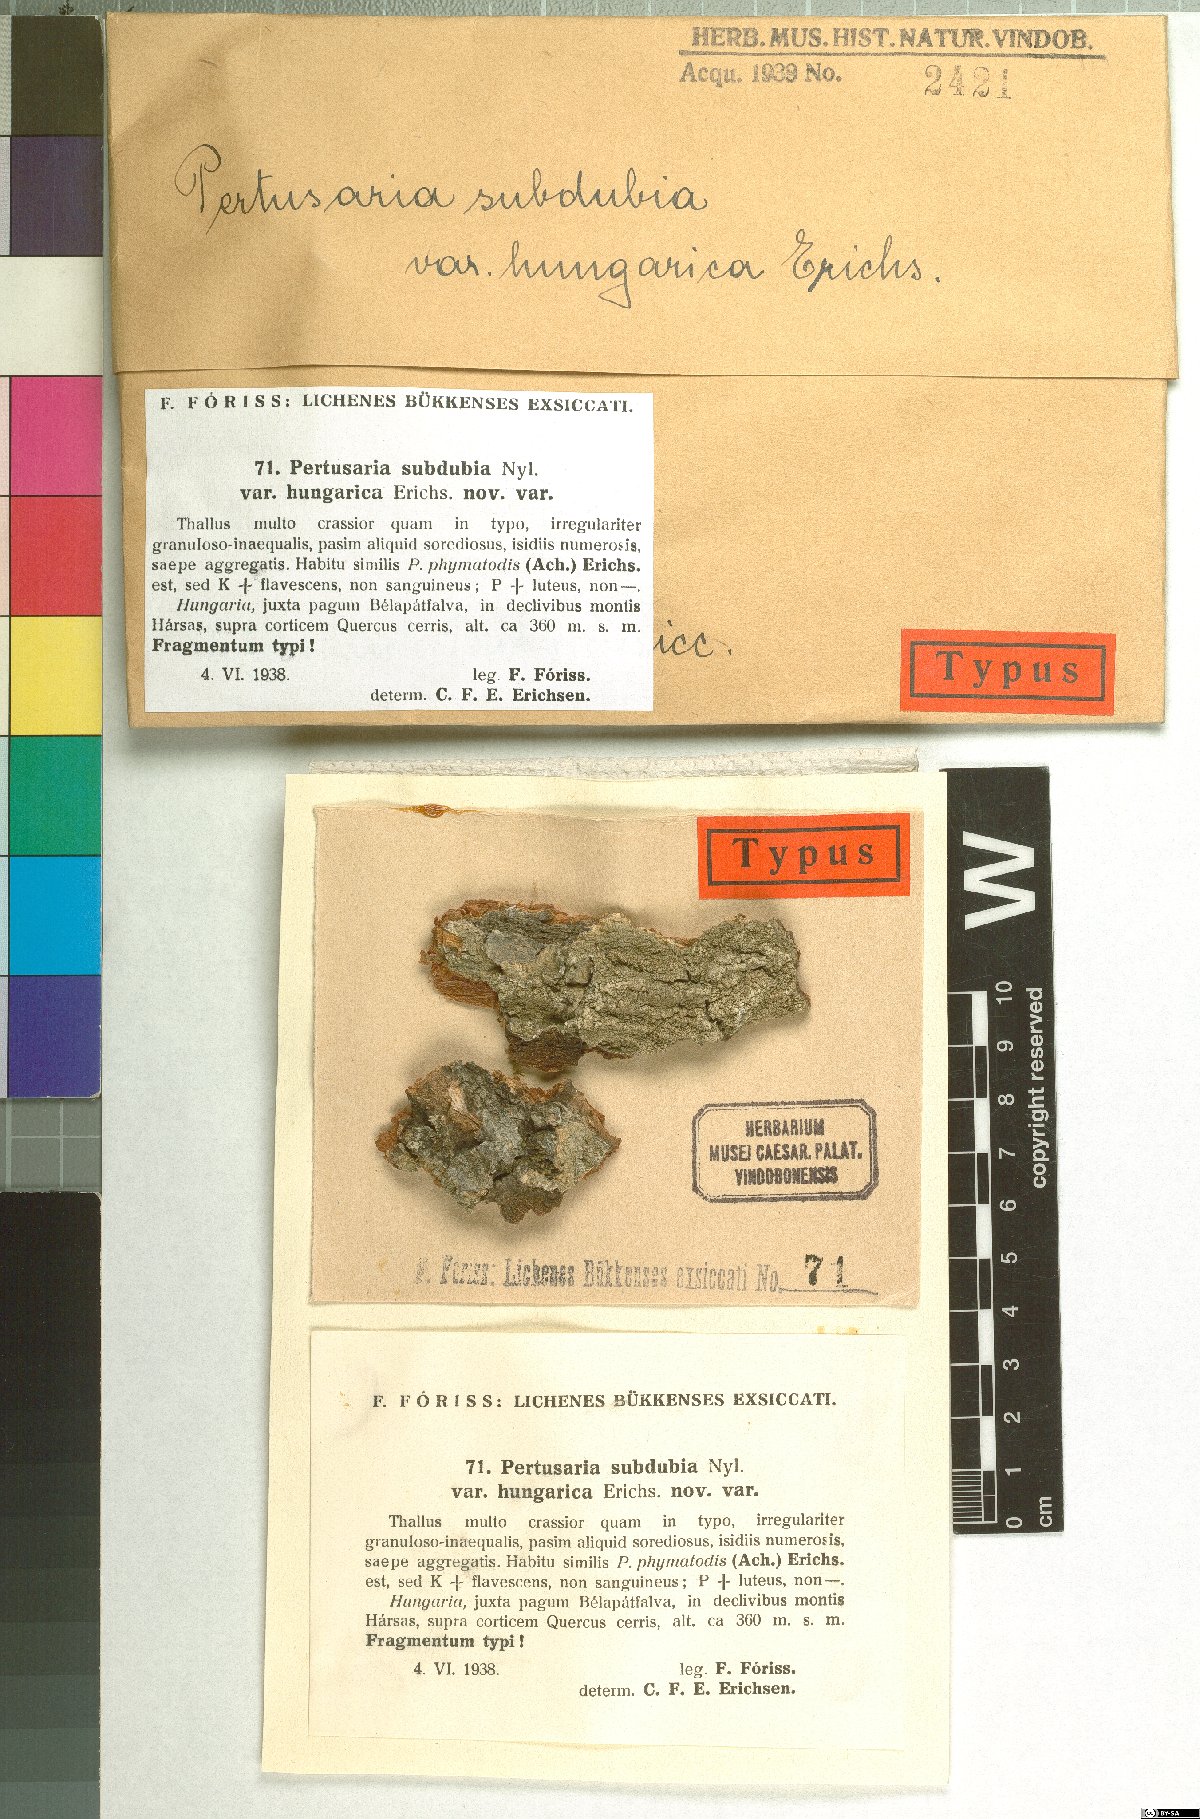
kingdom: Fungi
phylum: Ascomycota
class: Lecanoromycetes
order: Pertusariales
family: Pertusariaceae
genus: Pertusaria
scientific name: Pertusaria subdubia
